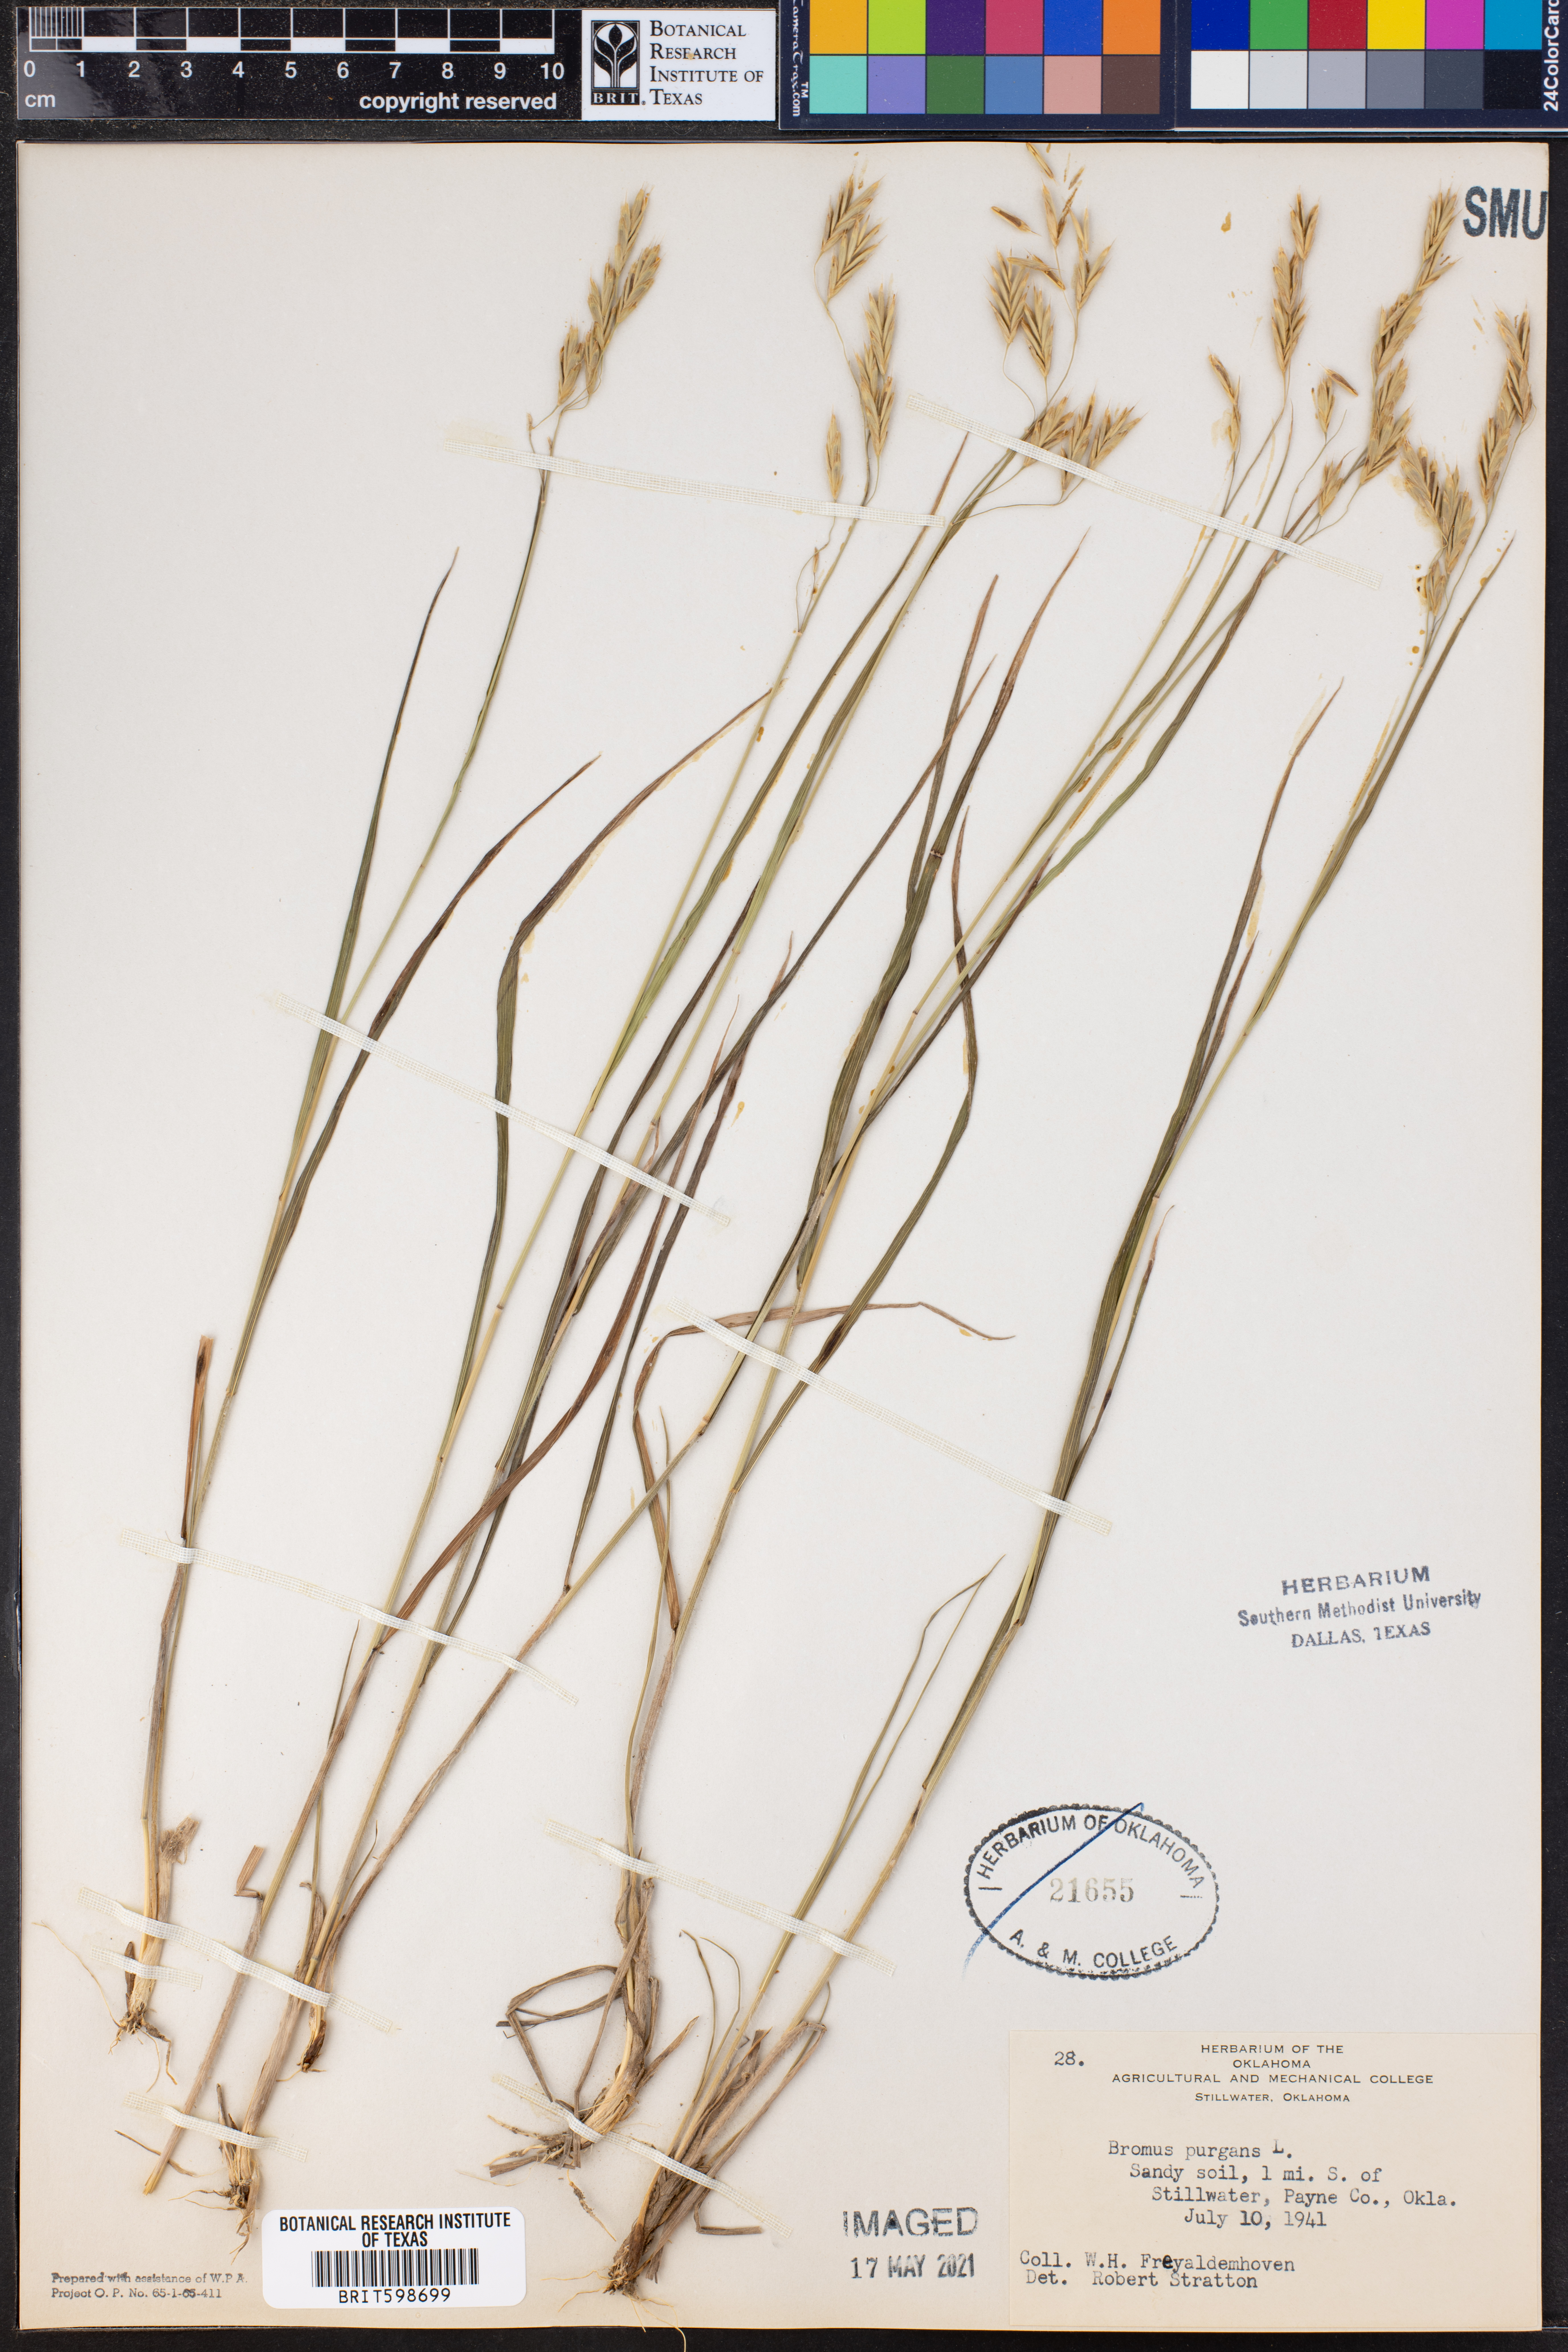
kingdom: Plantae
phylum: Tracheophyta
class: Liliopsida
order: Poales
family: Poaceae
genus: Triticum
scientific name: Triticum Bromus purgans
